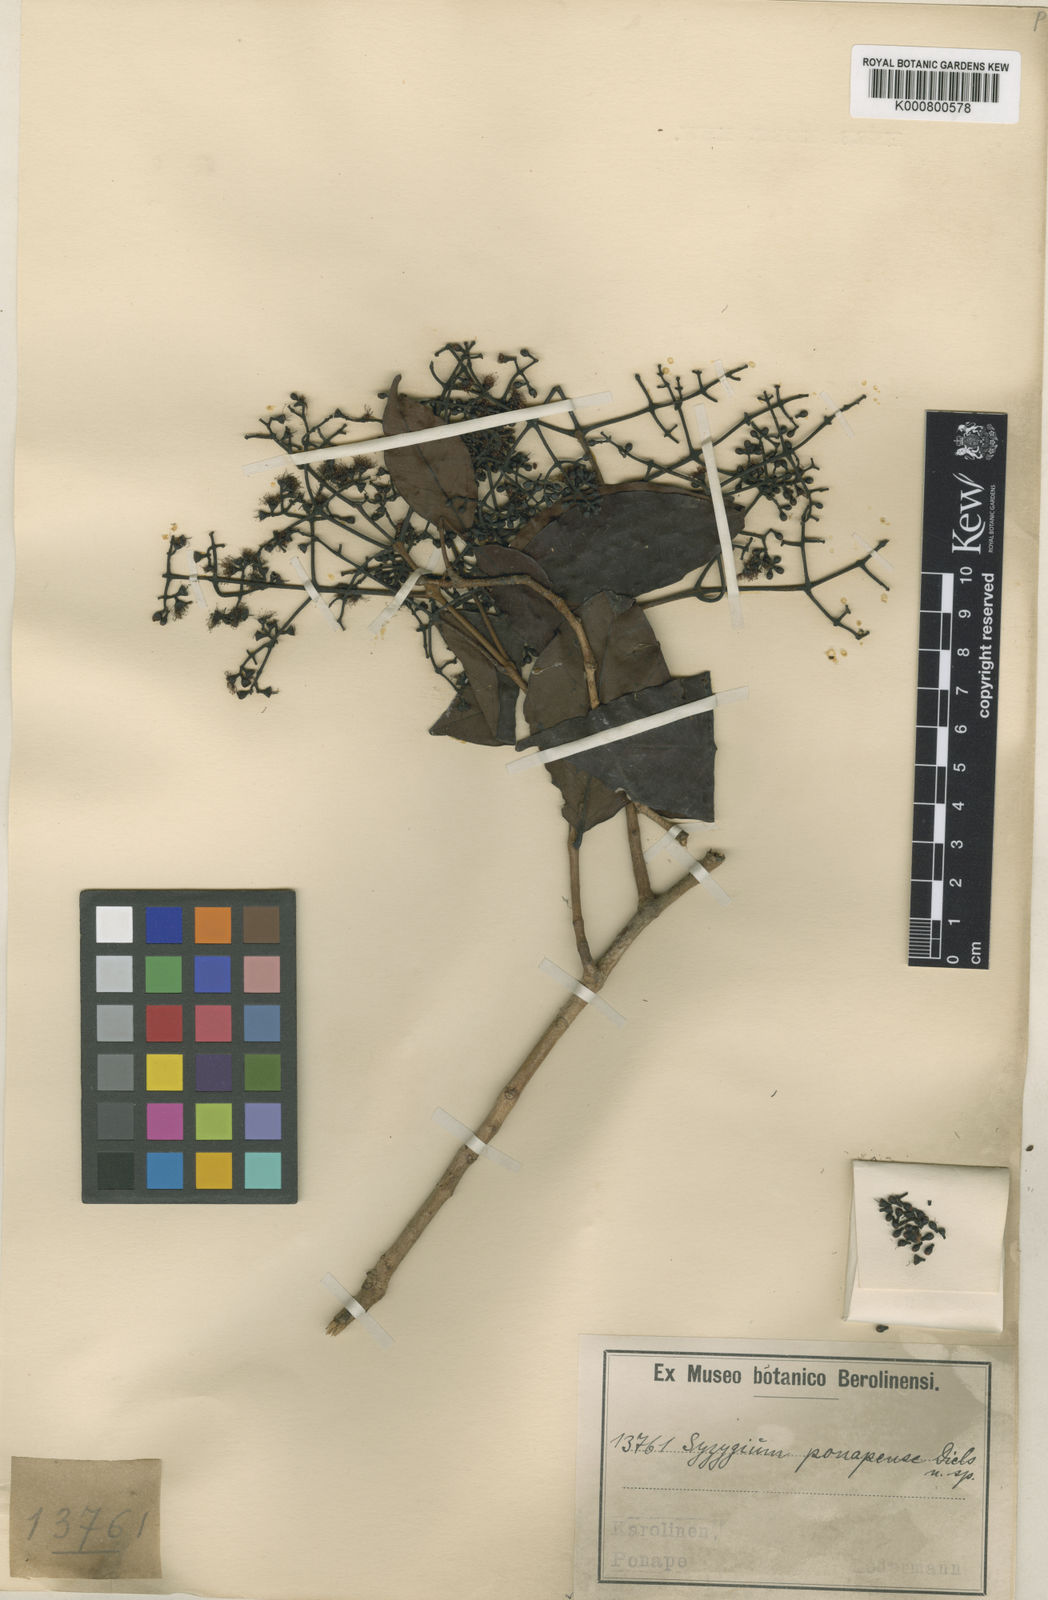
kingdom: Plantae
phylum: Tracheophyta
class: Magnoliopsida
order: Myrtales
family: Myrtaceae
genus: Syzygium
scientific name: Syzygium carolinense
